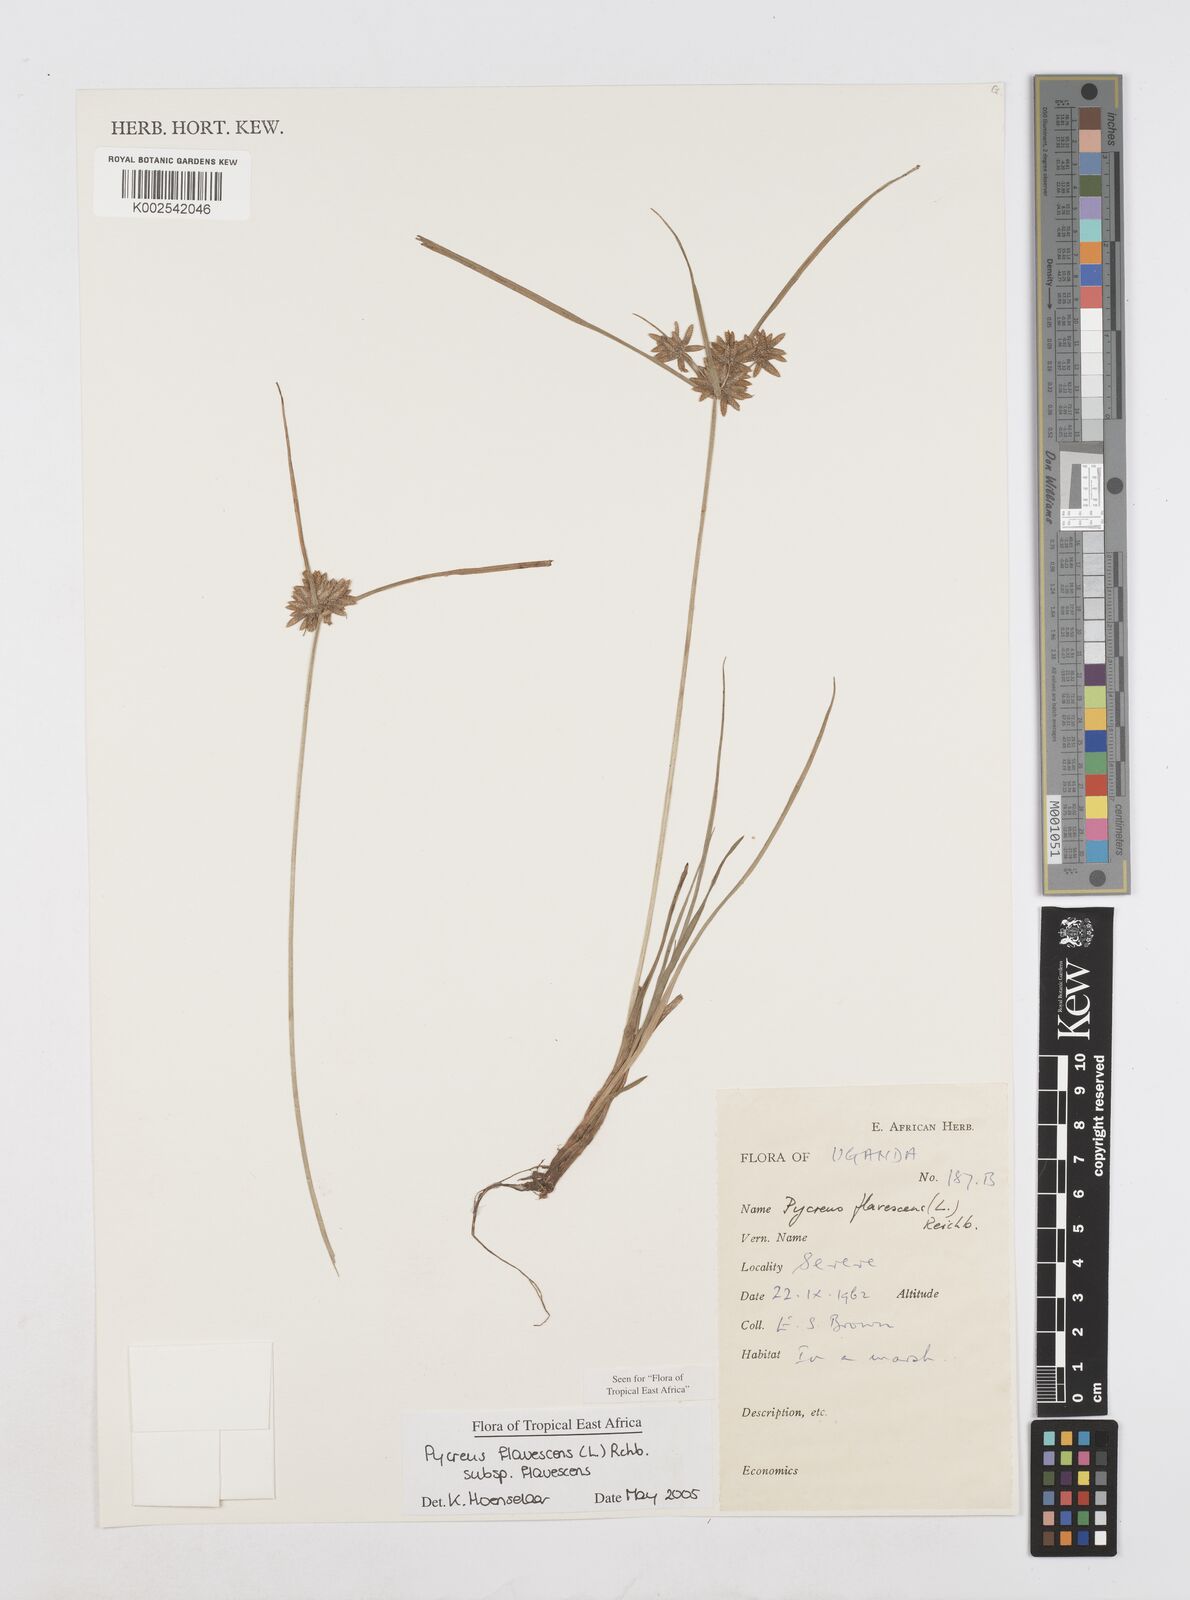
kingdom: Plantae
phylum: Tracheophyta
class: Liliopsida
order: Poales
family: Cyperaceae
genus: Cyperus
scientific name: Cyperus flavescens
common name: Yellow galingale
